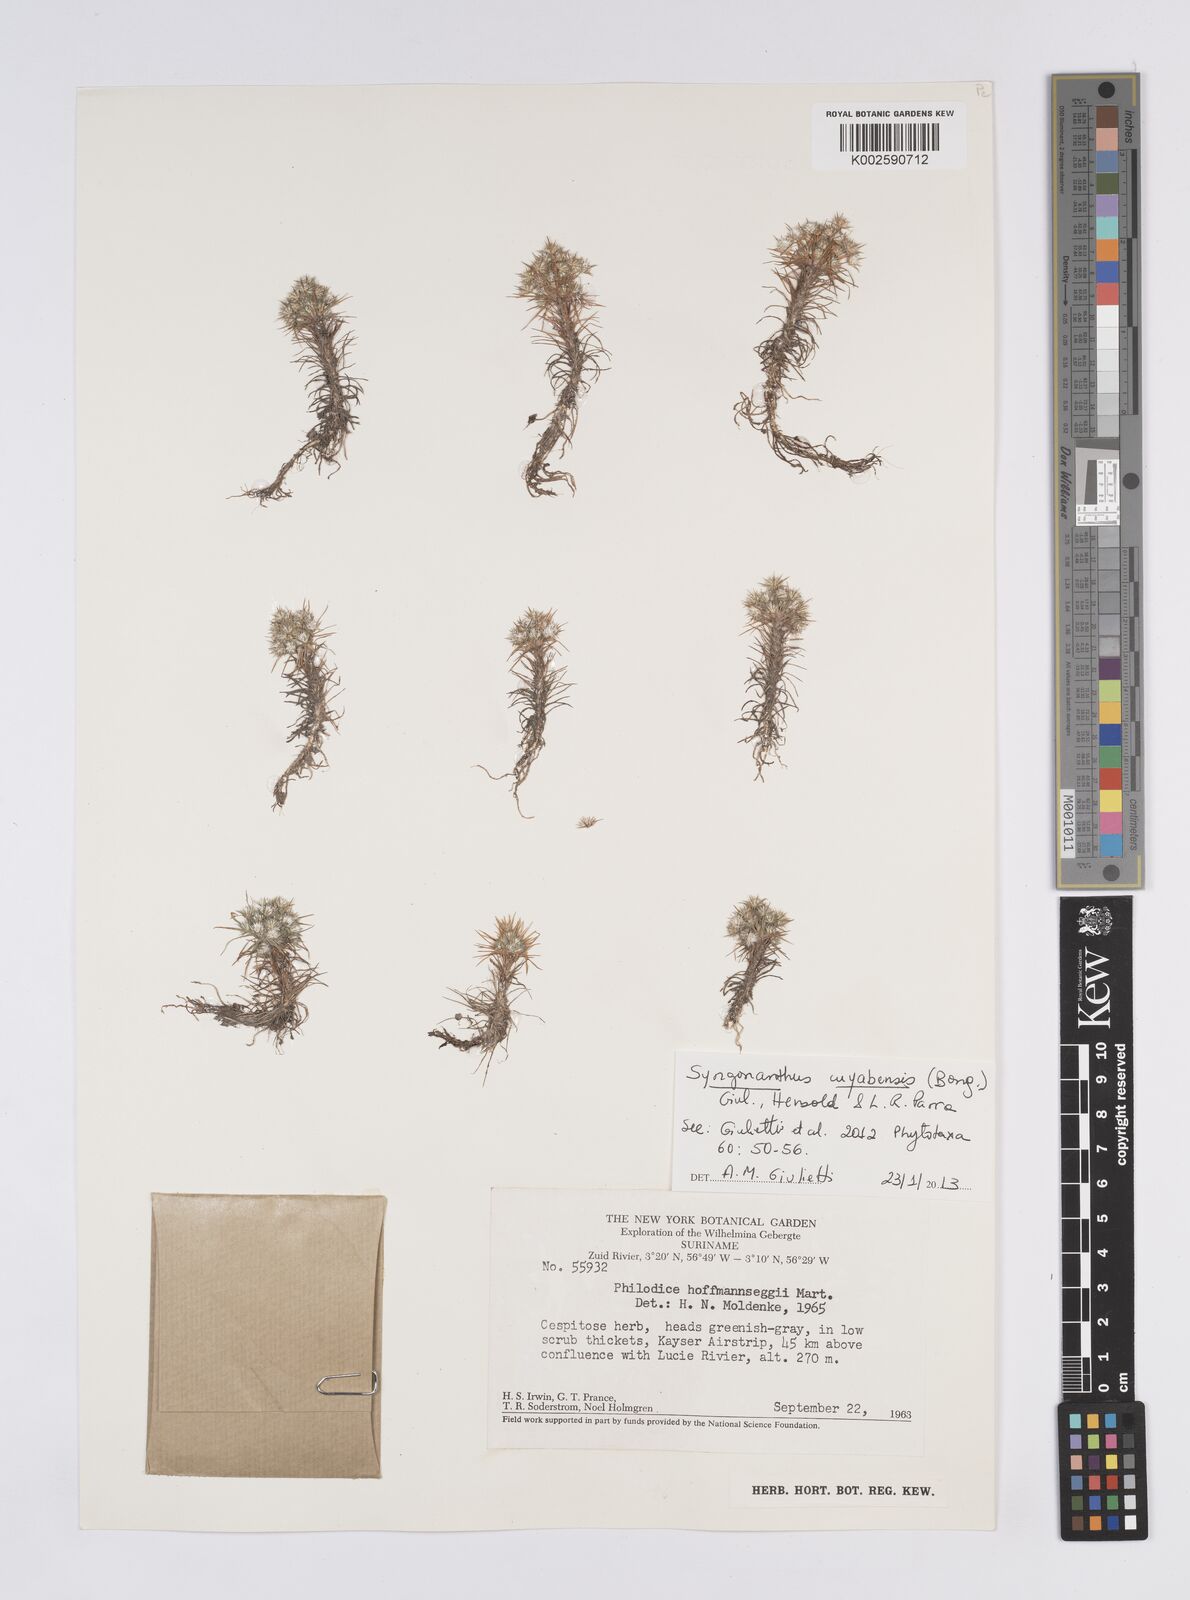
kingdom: Plantae
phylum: Tracheophyta
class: Liliopsida
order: Poales
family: Eriocaulaceae
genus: Syngonanthus
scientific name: Syngonanthus cuyabensis
